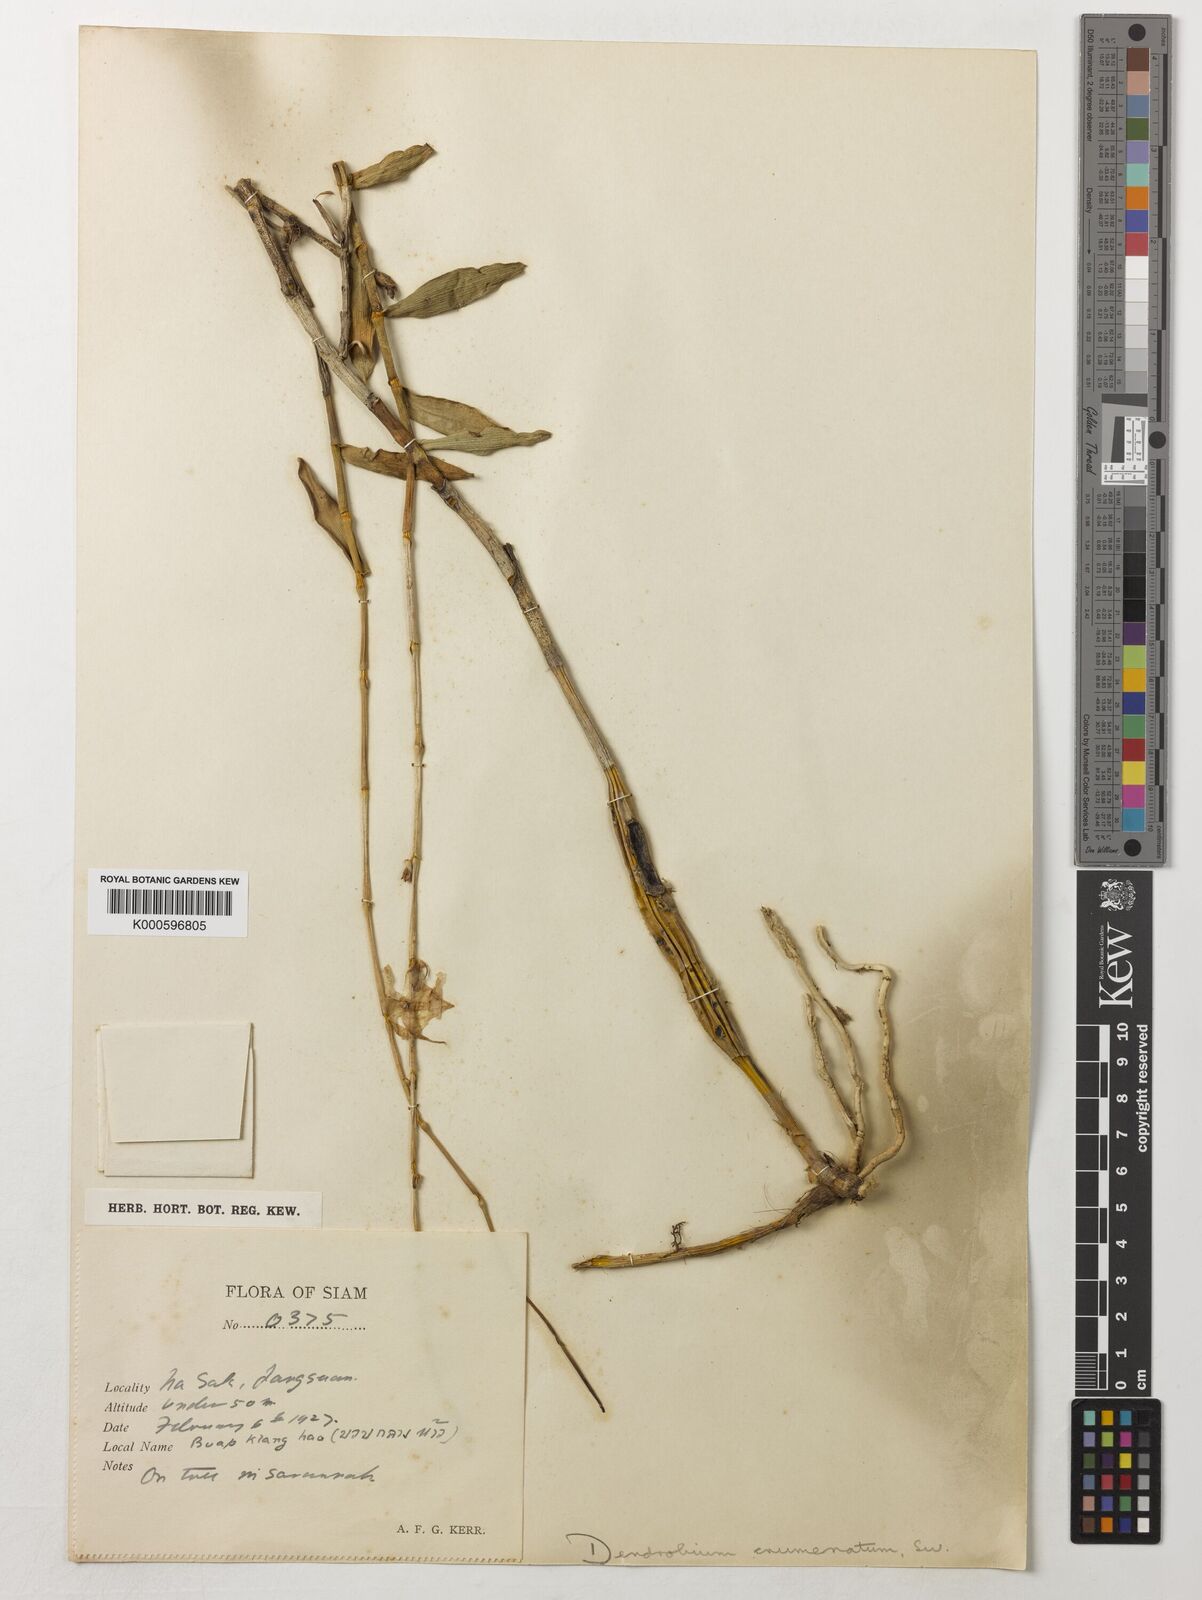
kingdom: Plantae
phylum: Tracheophyta
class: Liliopsida
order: Asparagales
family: Orchidaceae
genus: Dendrobium
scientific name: Dendrobium crumenatum
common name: Orchid
